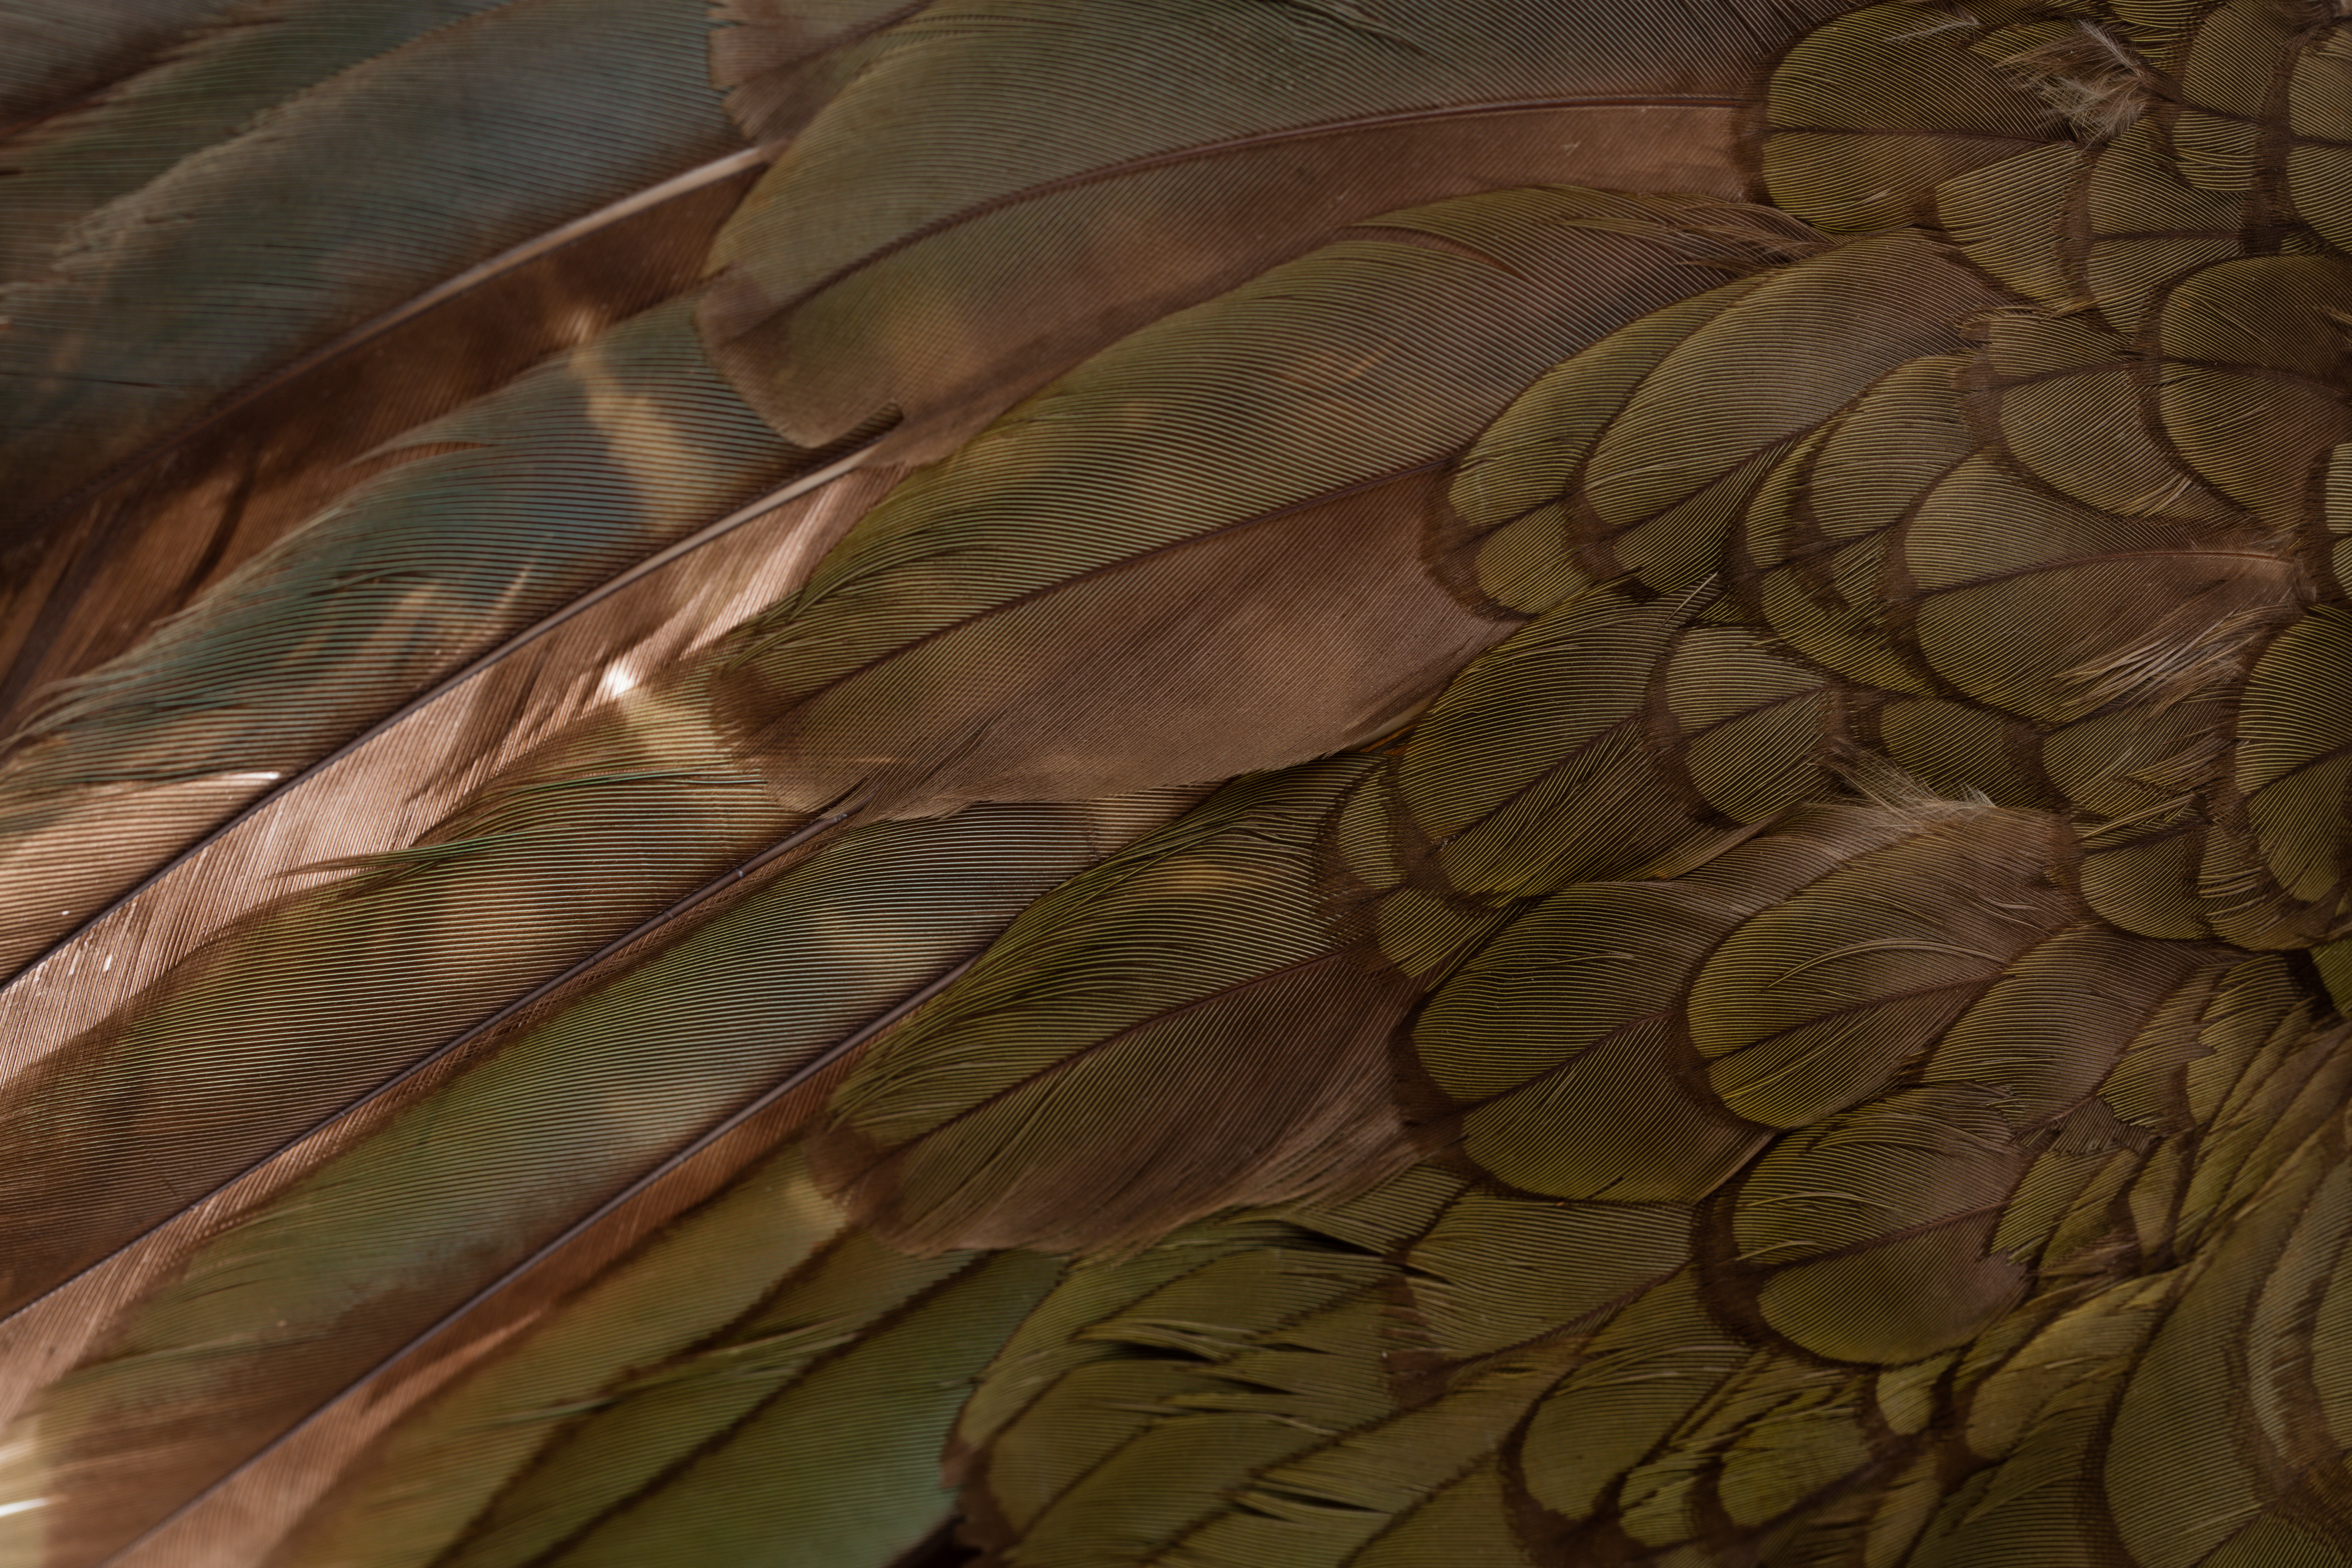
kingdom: Animalia
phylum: Chordata
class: Aves
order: Psittaciformes
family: Psittacidae
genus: Nestor
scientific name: Nestor notabilis
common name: Kea
